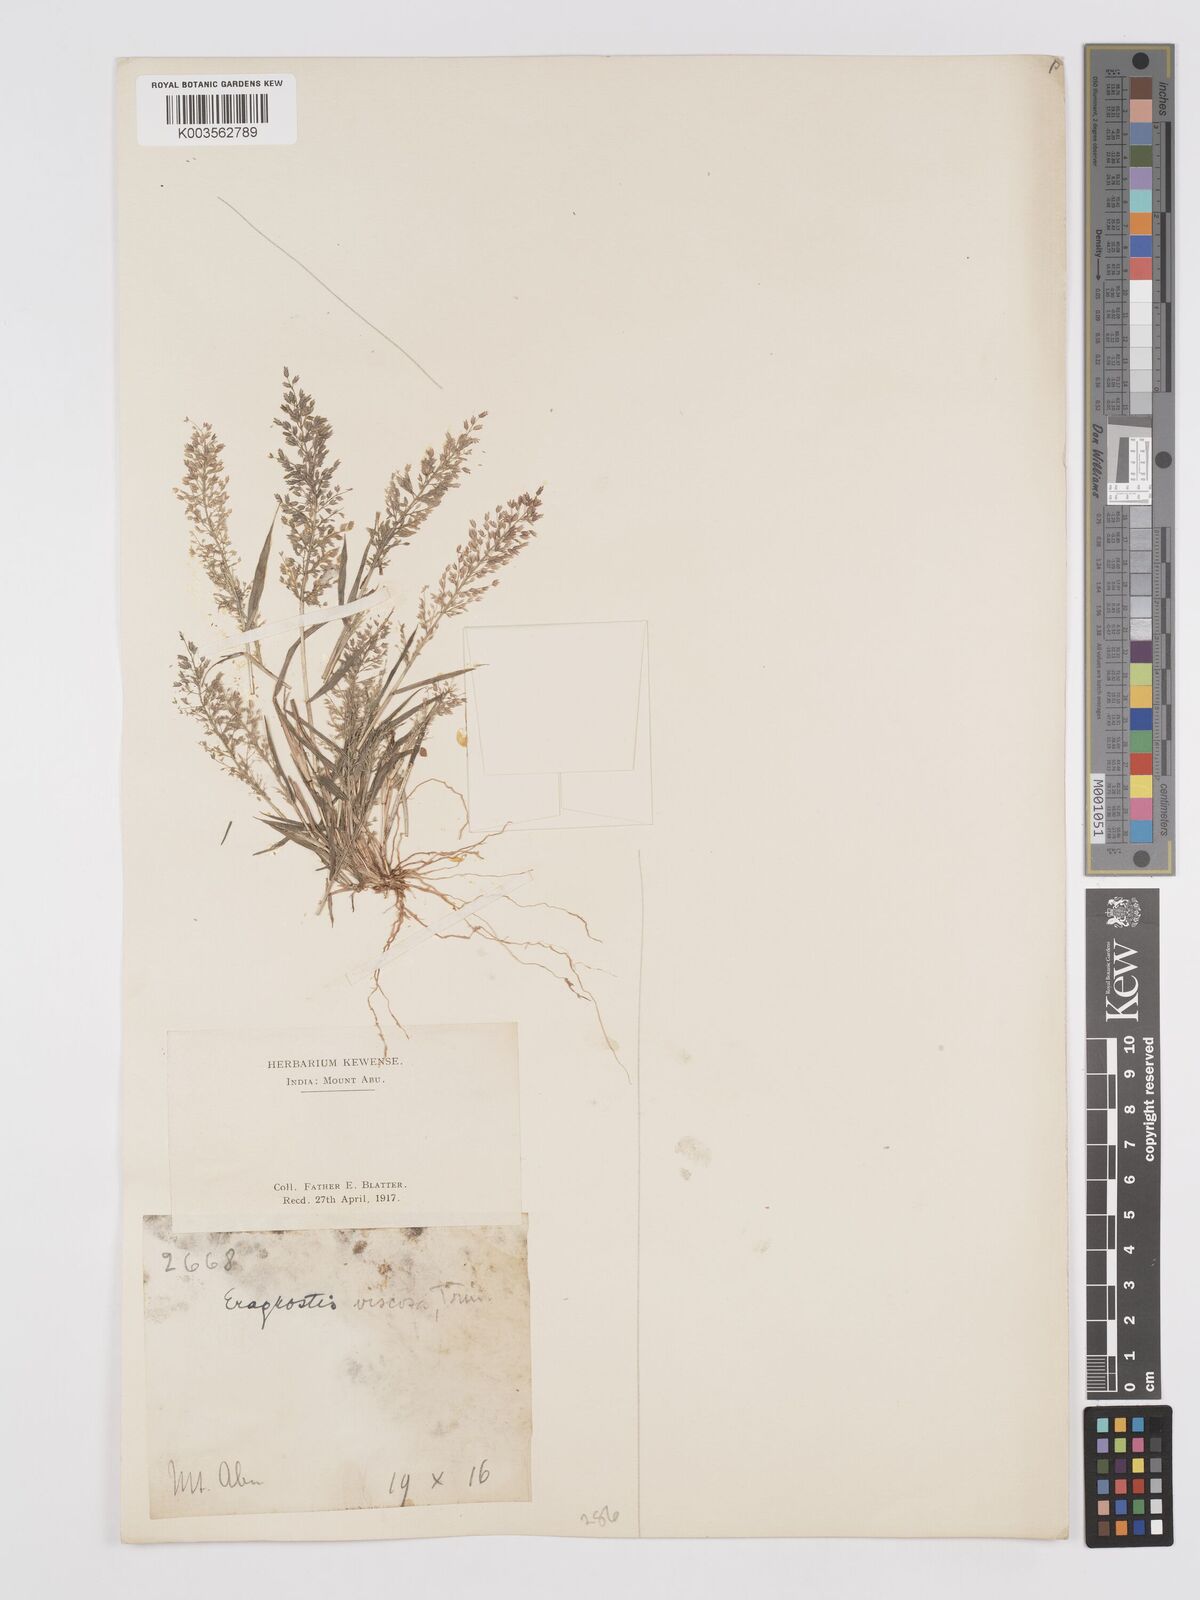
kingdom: Plantae
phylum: Tracheophyta
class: Liliopsida
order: Poales
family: Poaceae
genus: Eragrostis
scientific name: Eragrostis viscosa
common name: Sticky love grass
